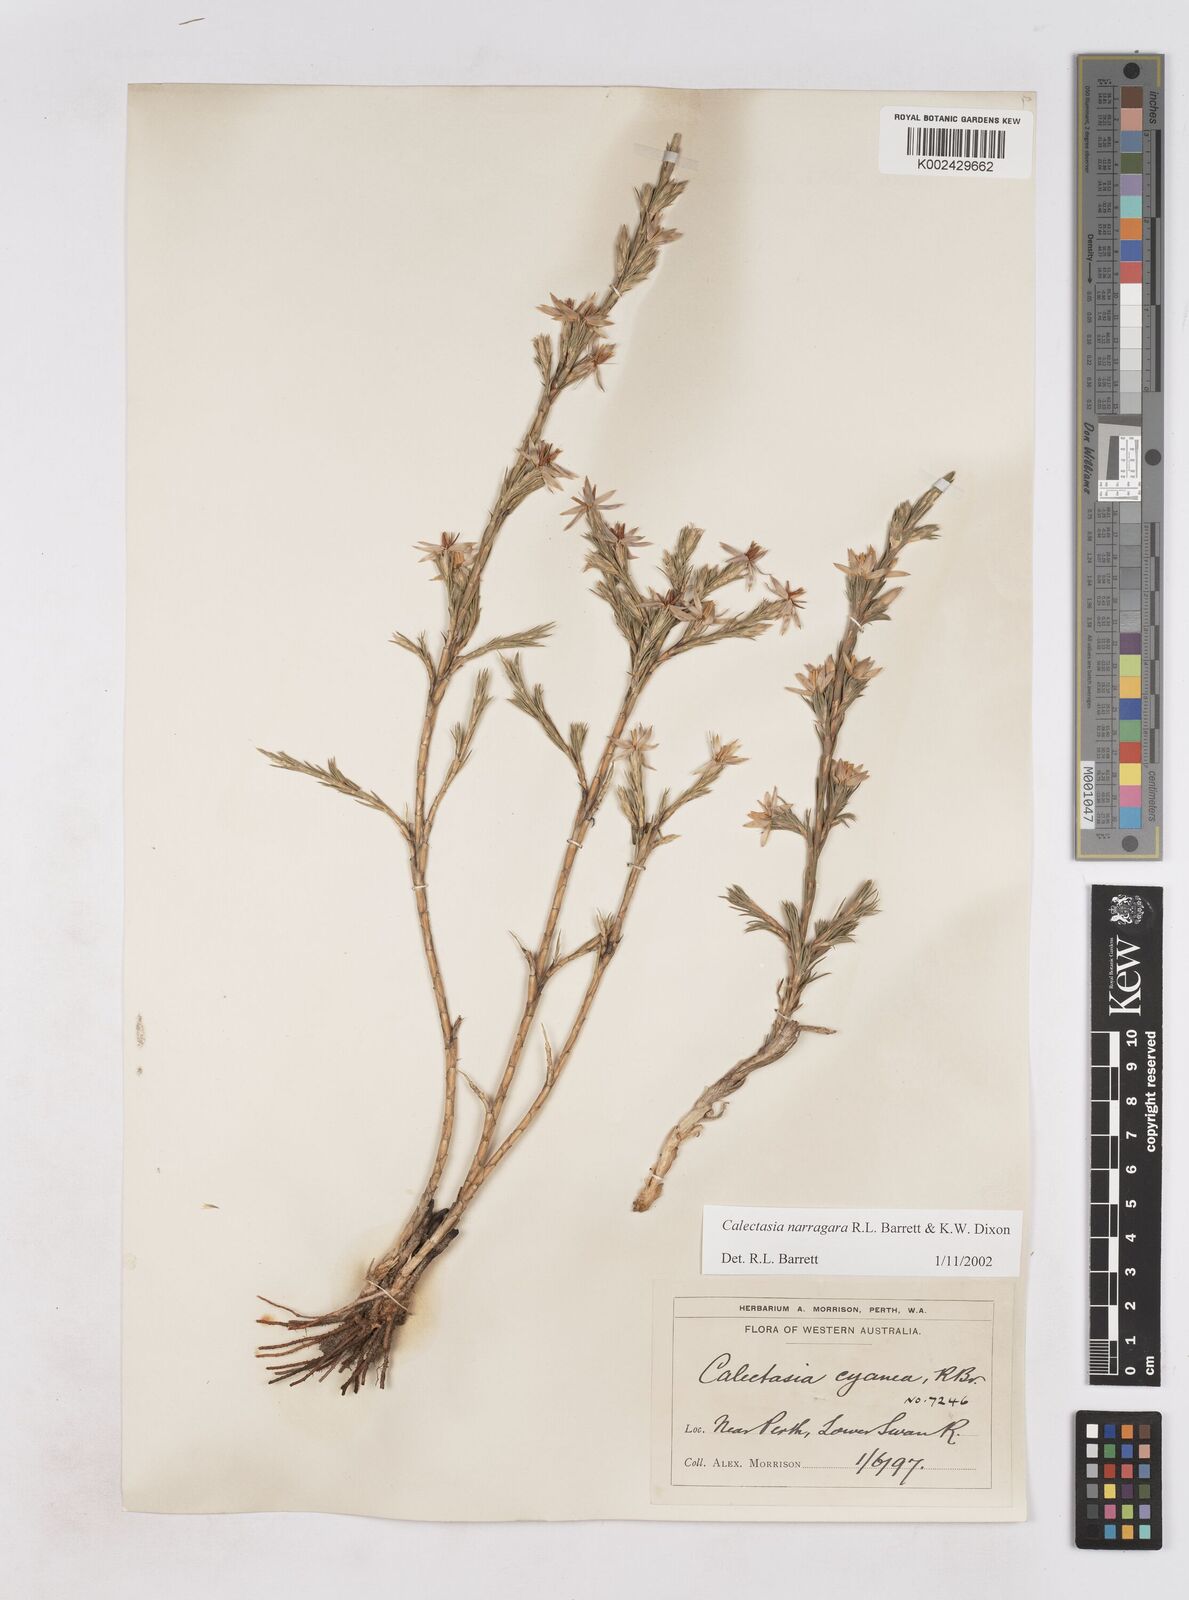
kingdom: Plantae
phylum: Tracheophyta
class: Liliopsida
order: Arecales
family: Dasypogonaceae
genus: Calectasia
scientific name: Calectasia narragara
